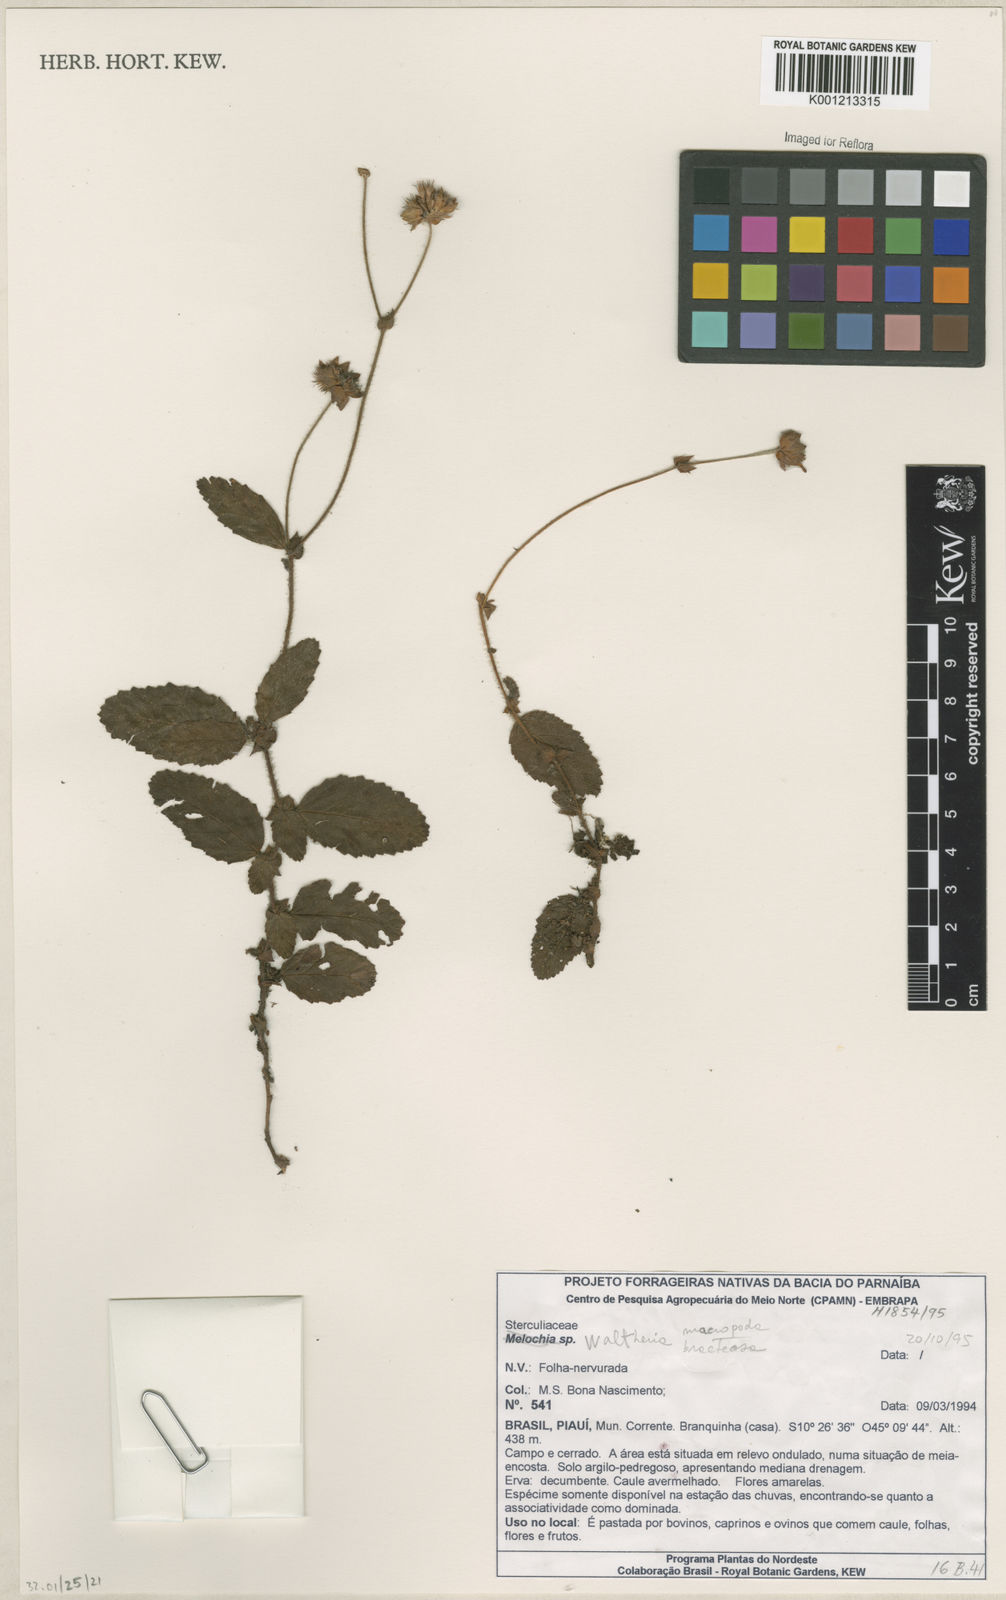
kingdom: Plantae
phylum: Tracheophyta
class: Magnoliopsida
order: Malvales
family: Malvaceae
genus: Waltheria
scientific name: Waltheria bracteosa
